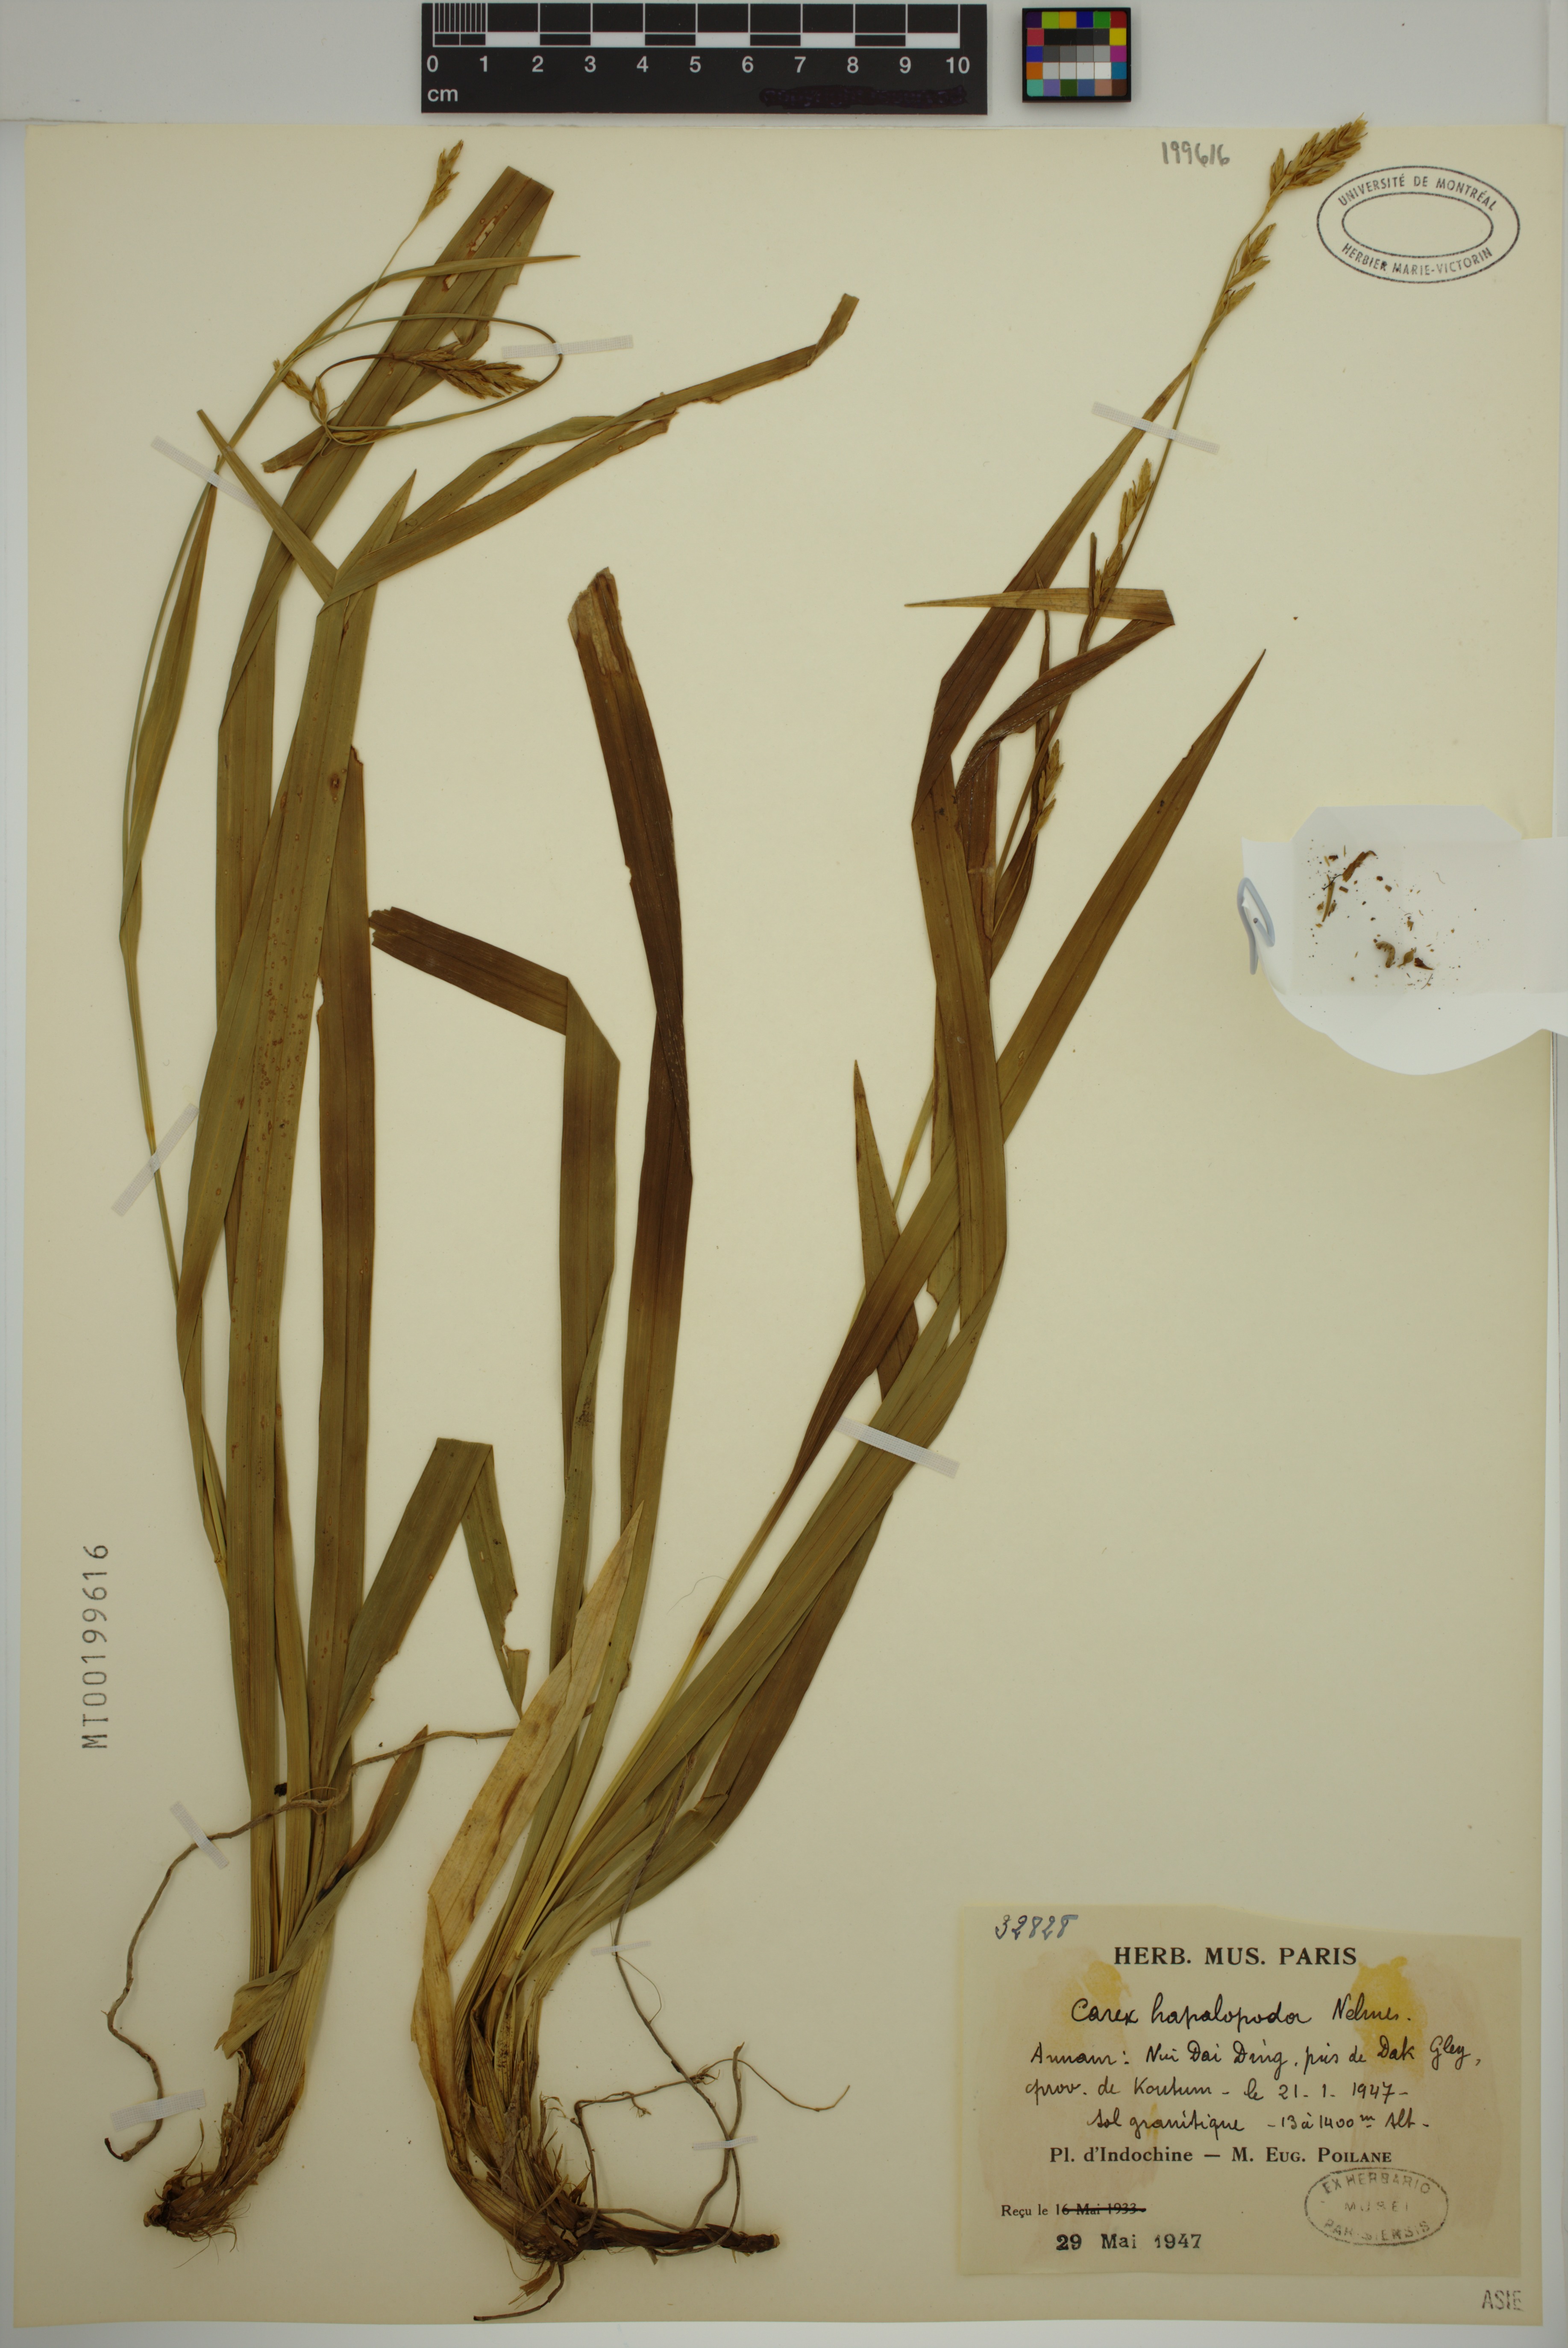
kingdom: Plantae
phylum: Tracheophyta
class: Liliopsida
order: Poales
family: Cyperaceae
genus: Carex
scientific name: Carex
